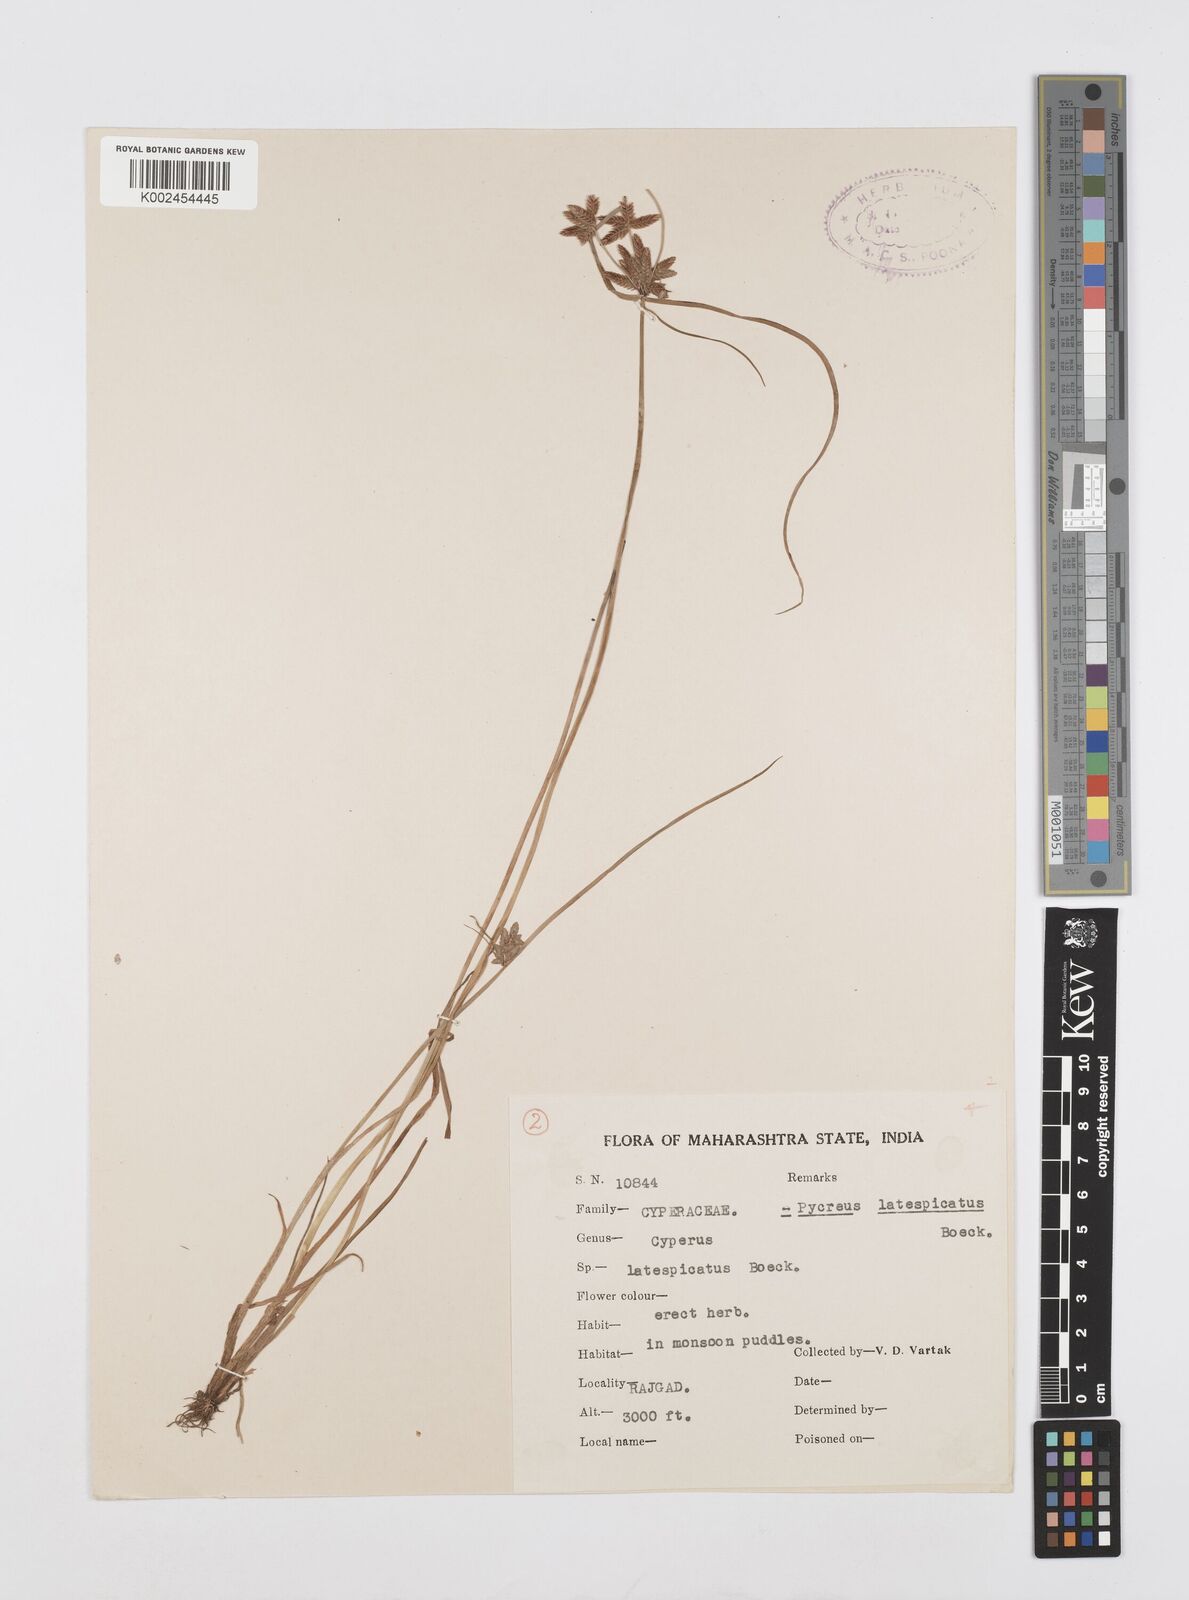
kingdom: Plantae
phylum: Tracheophyta
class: Liliopsida
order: Poales
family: Cyperaceae
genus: Cyperus
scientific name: Cyperus
